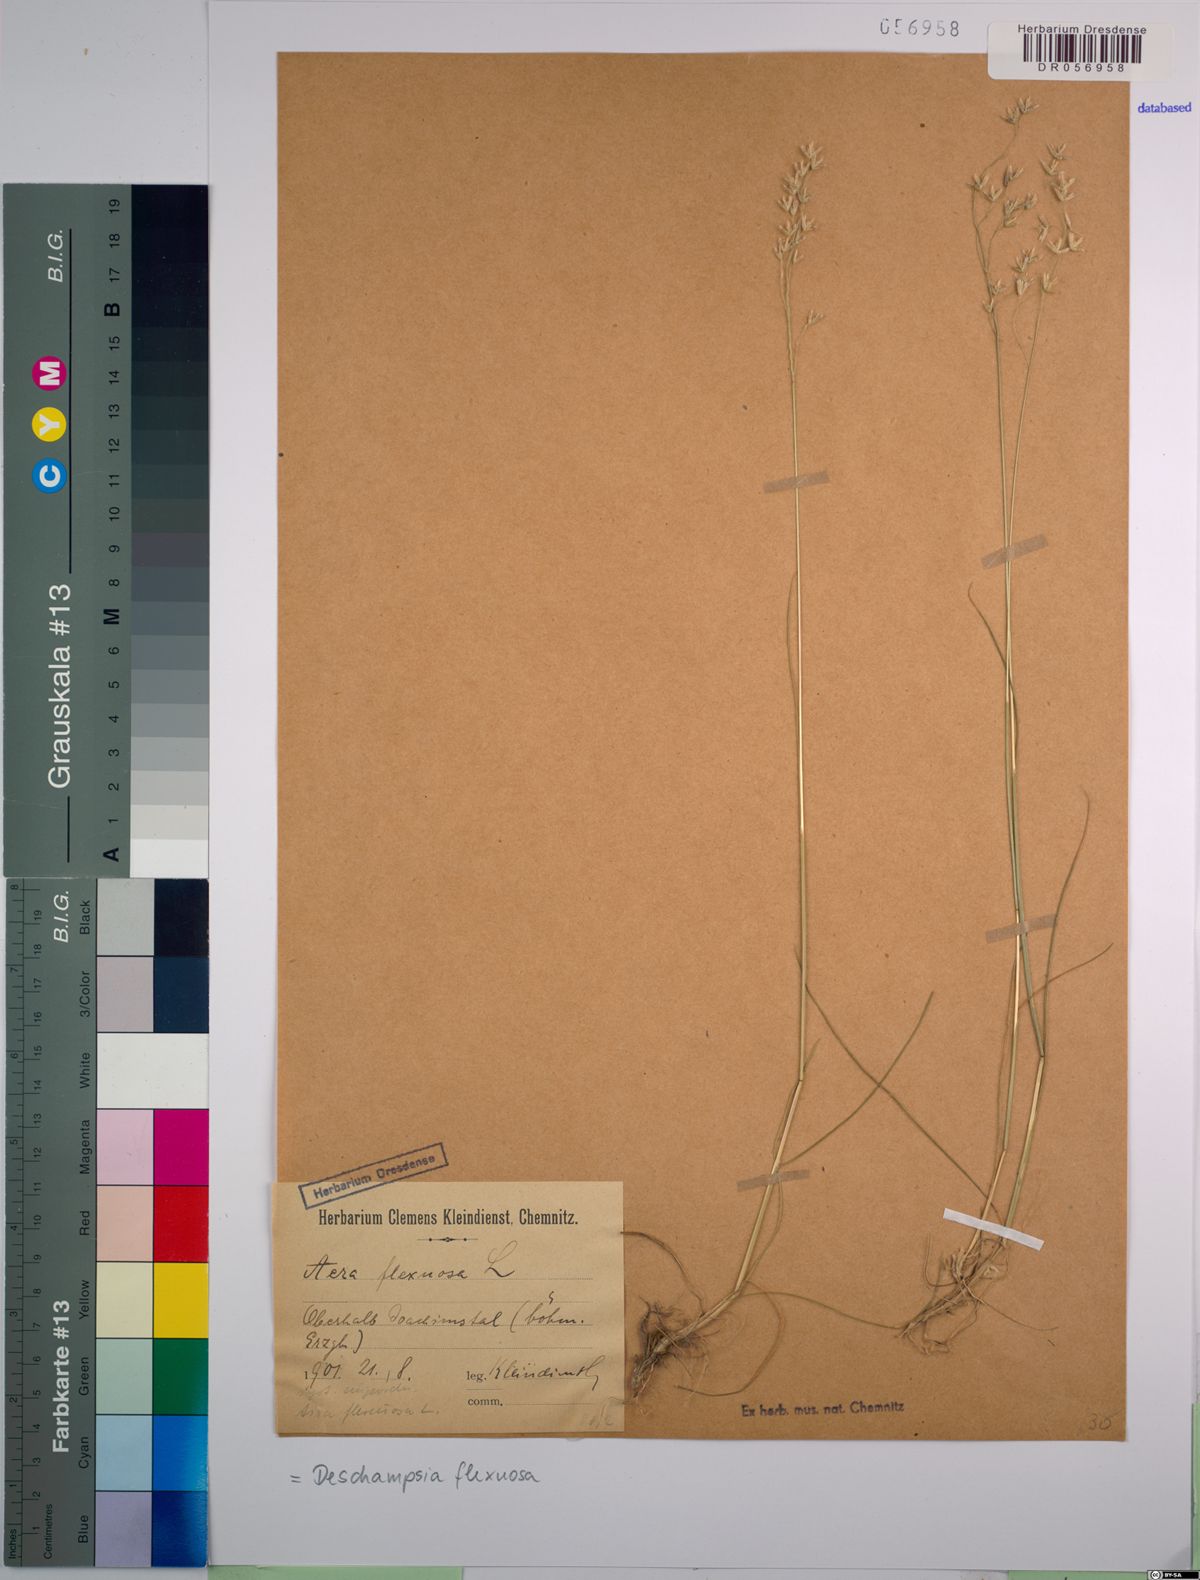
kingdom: Plantae
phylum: Tracheophyta
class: Liliopsida
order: Poales
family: Poaceae
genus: Avenella
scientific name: Avenella flexuosa
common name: Wavy hairgrass
